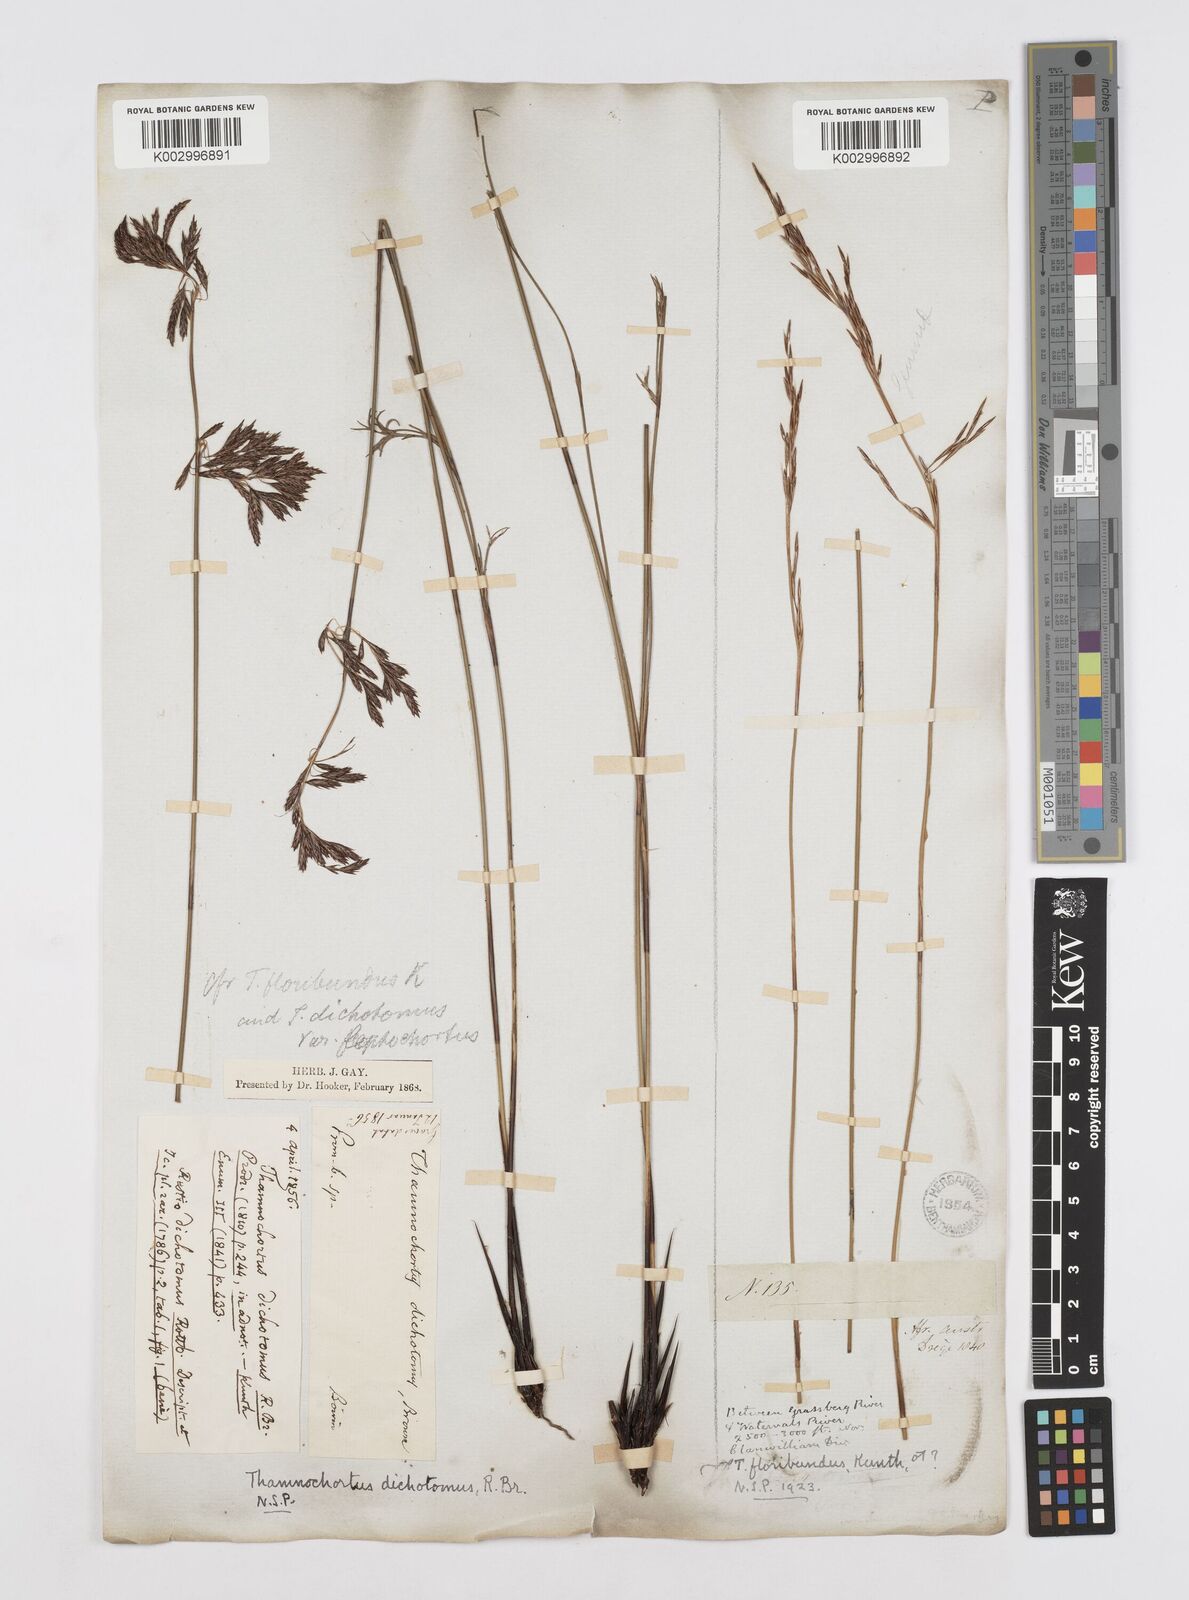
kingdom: Plantae
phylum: Tracheophyta
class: Liliopsida
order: Poales
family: Restionaceae
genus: Thamnochortus
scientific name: Thamnochortus lucens
